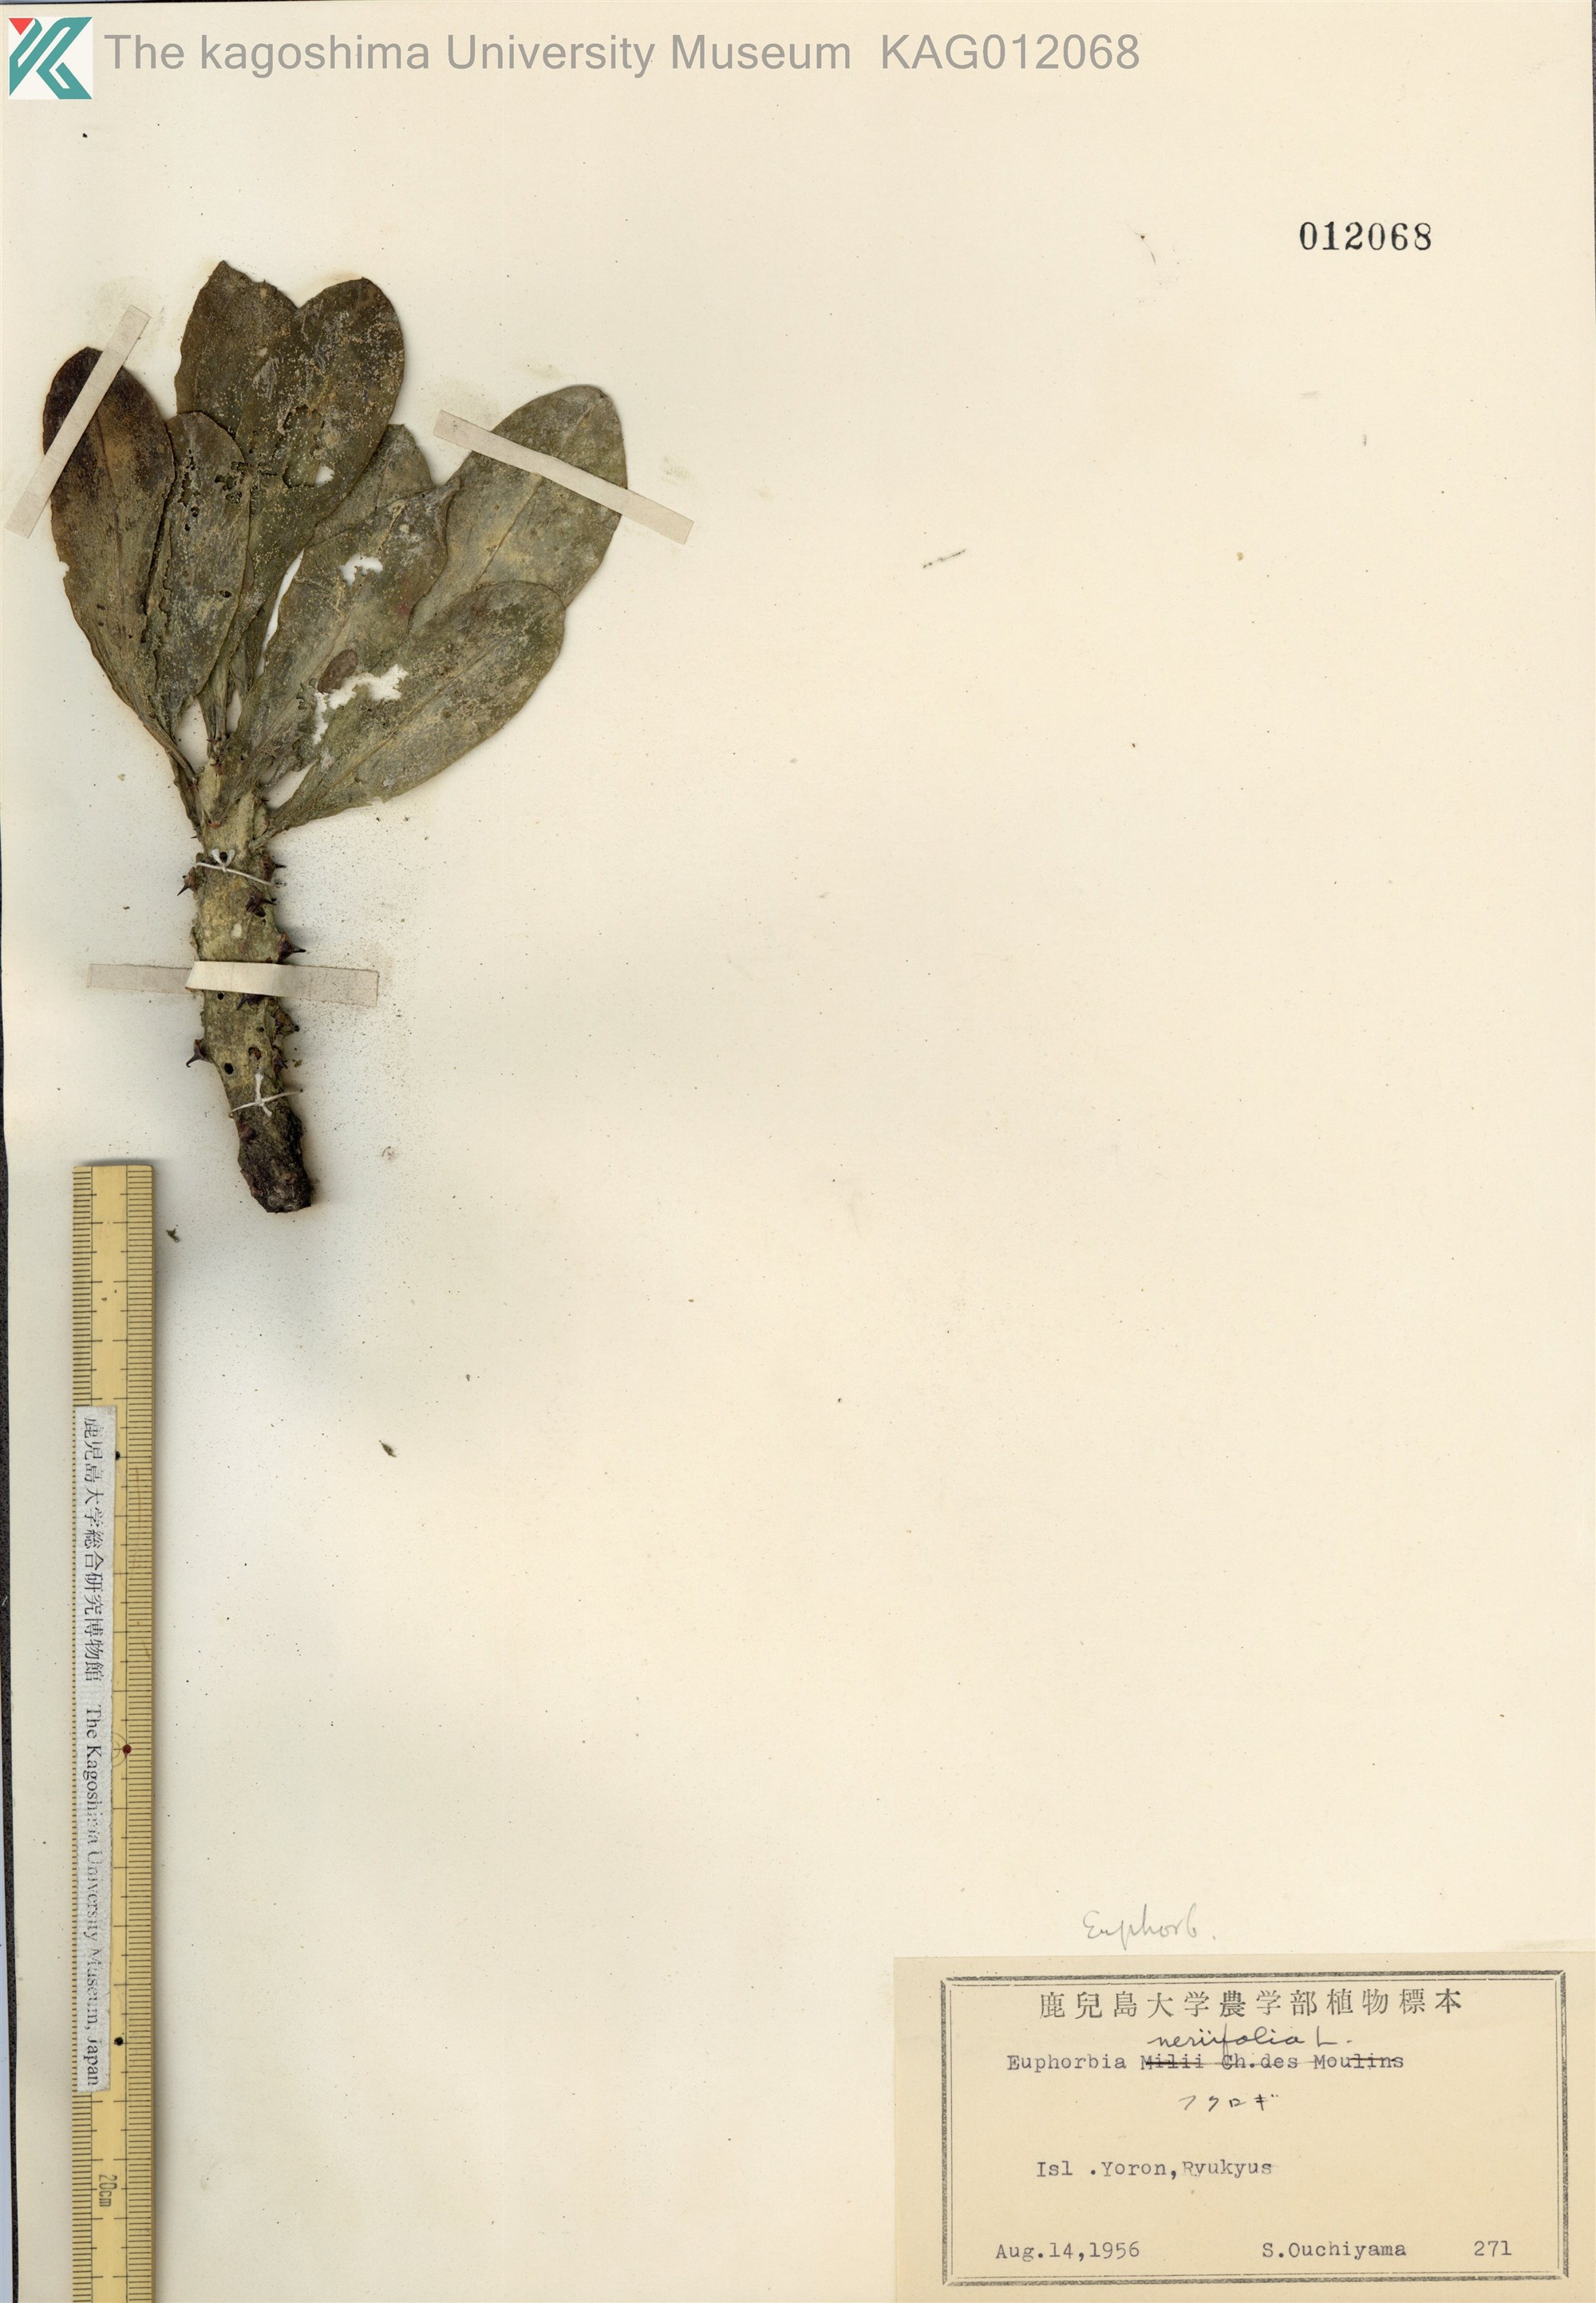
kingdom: Plantae
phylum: Tracheophyta
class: Magnoliopsida
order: Malpighiales
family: Euphorbiaceae
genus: Euphorbia
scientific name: Euphorbia neriifolia
